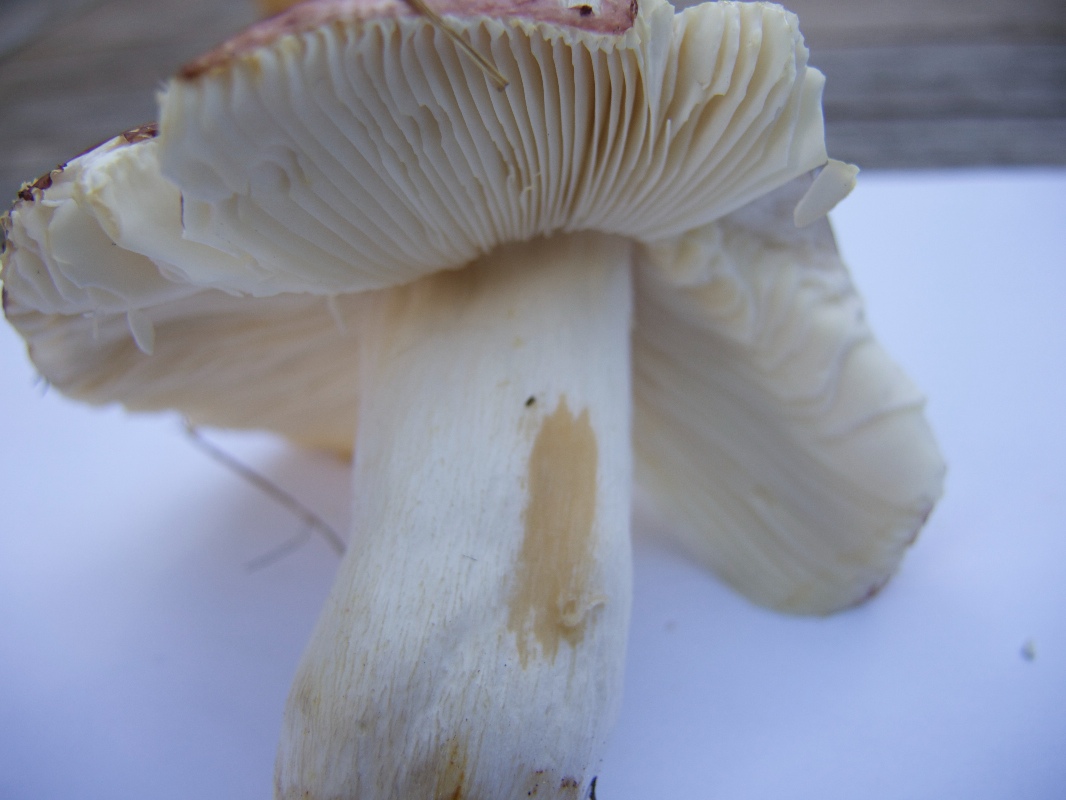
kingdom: Fungi
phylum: Basidiomycota
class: Agaricomycetes
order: Russulales
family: Russulaceae
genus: Russula
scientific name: Russula melliolens
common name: honning-skørhat
